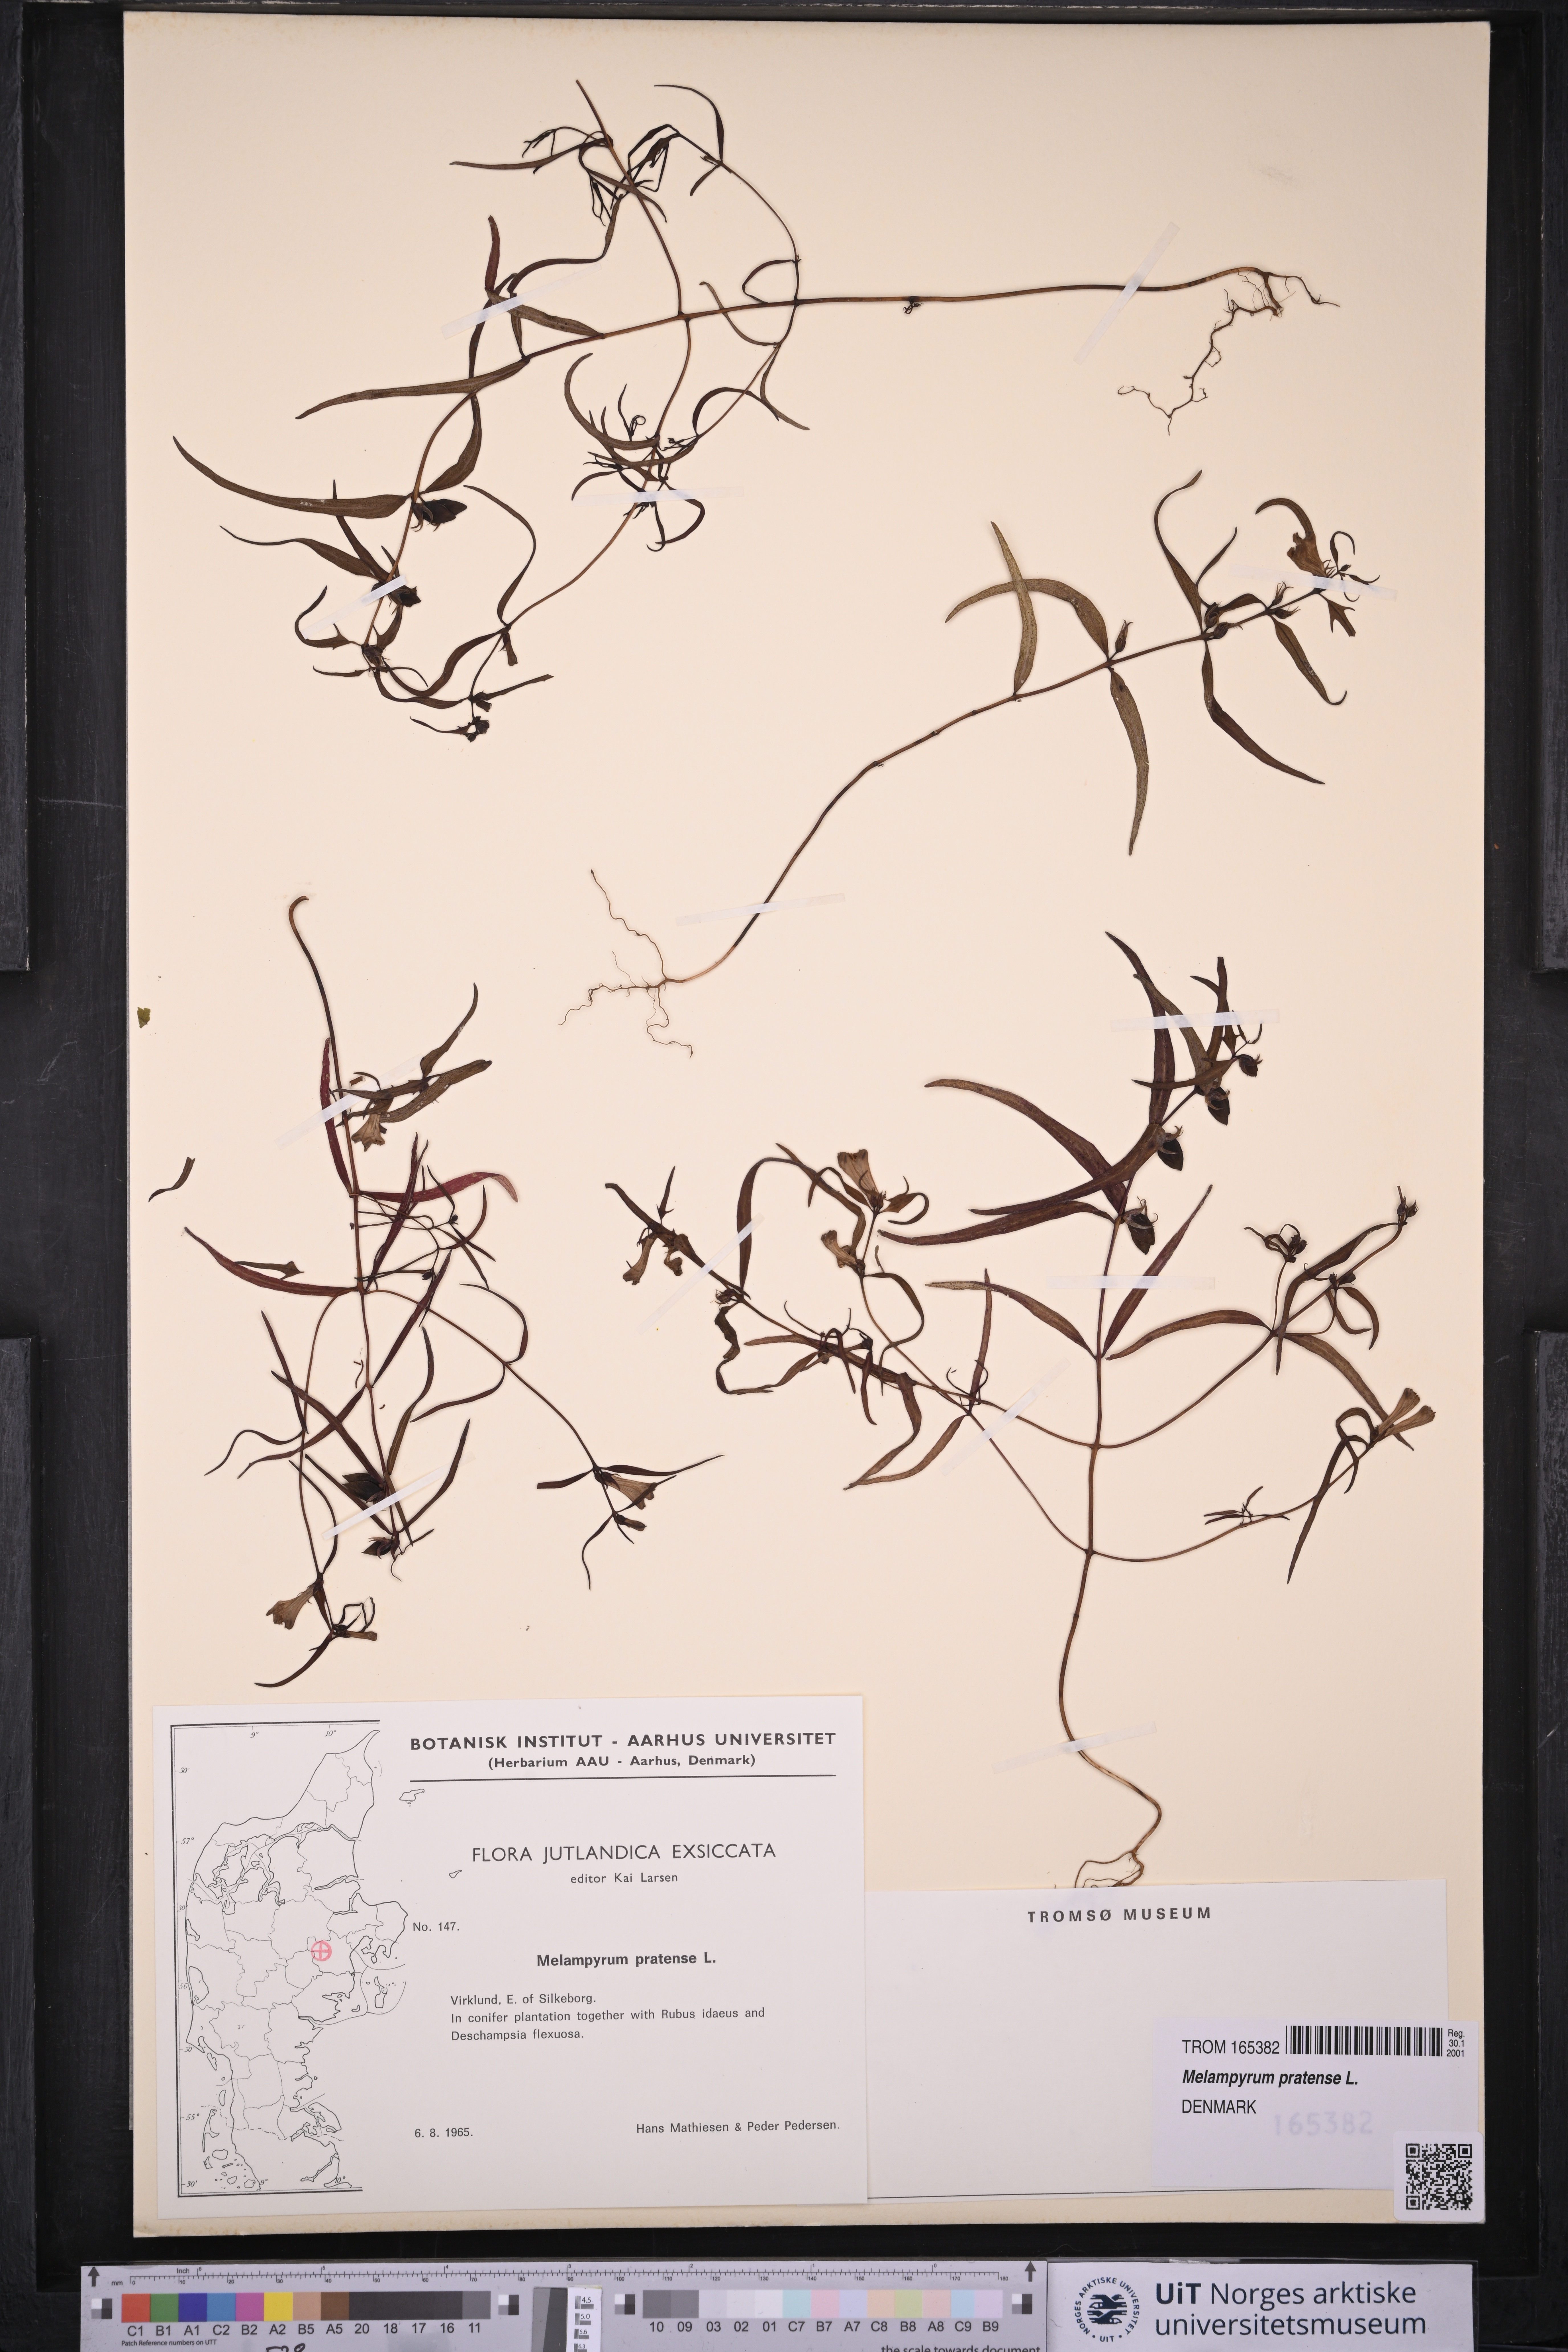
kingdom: Plantae
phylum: Tracheophyta
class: Magnoliopsida
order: Lamiales
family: Orobanchaceae
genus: Melampyrum
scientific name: Melampyrum pratense
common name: Common cow-wheat
